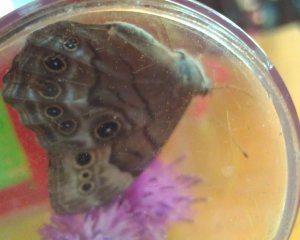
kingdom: Animalia
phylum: Arthropoda
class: Insecta
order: Lepidoptera
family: Nymphalidae
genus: Lethe
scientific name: Lethe anthedon
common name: Northern Pearly-Eye
